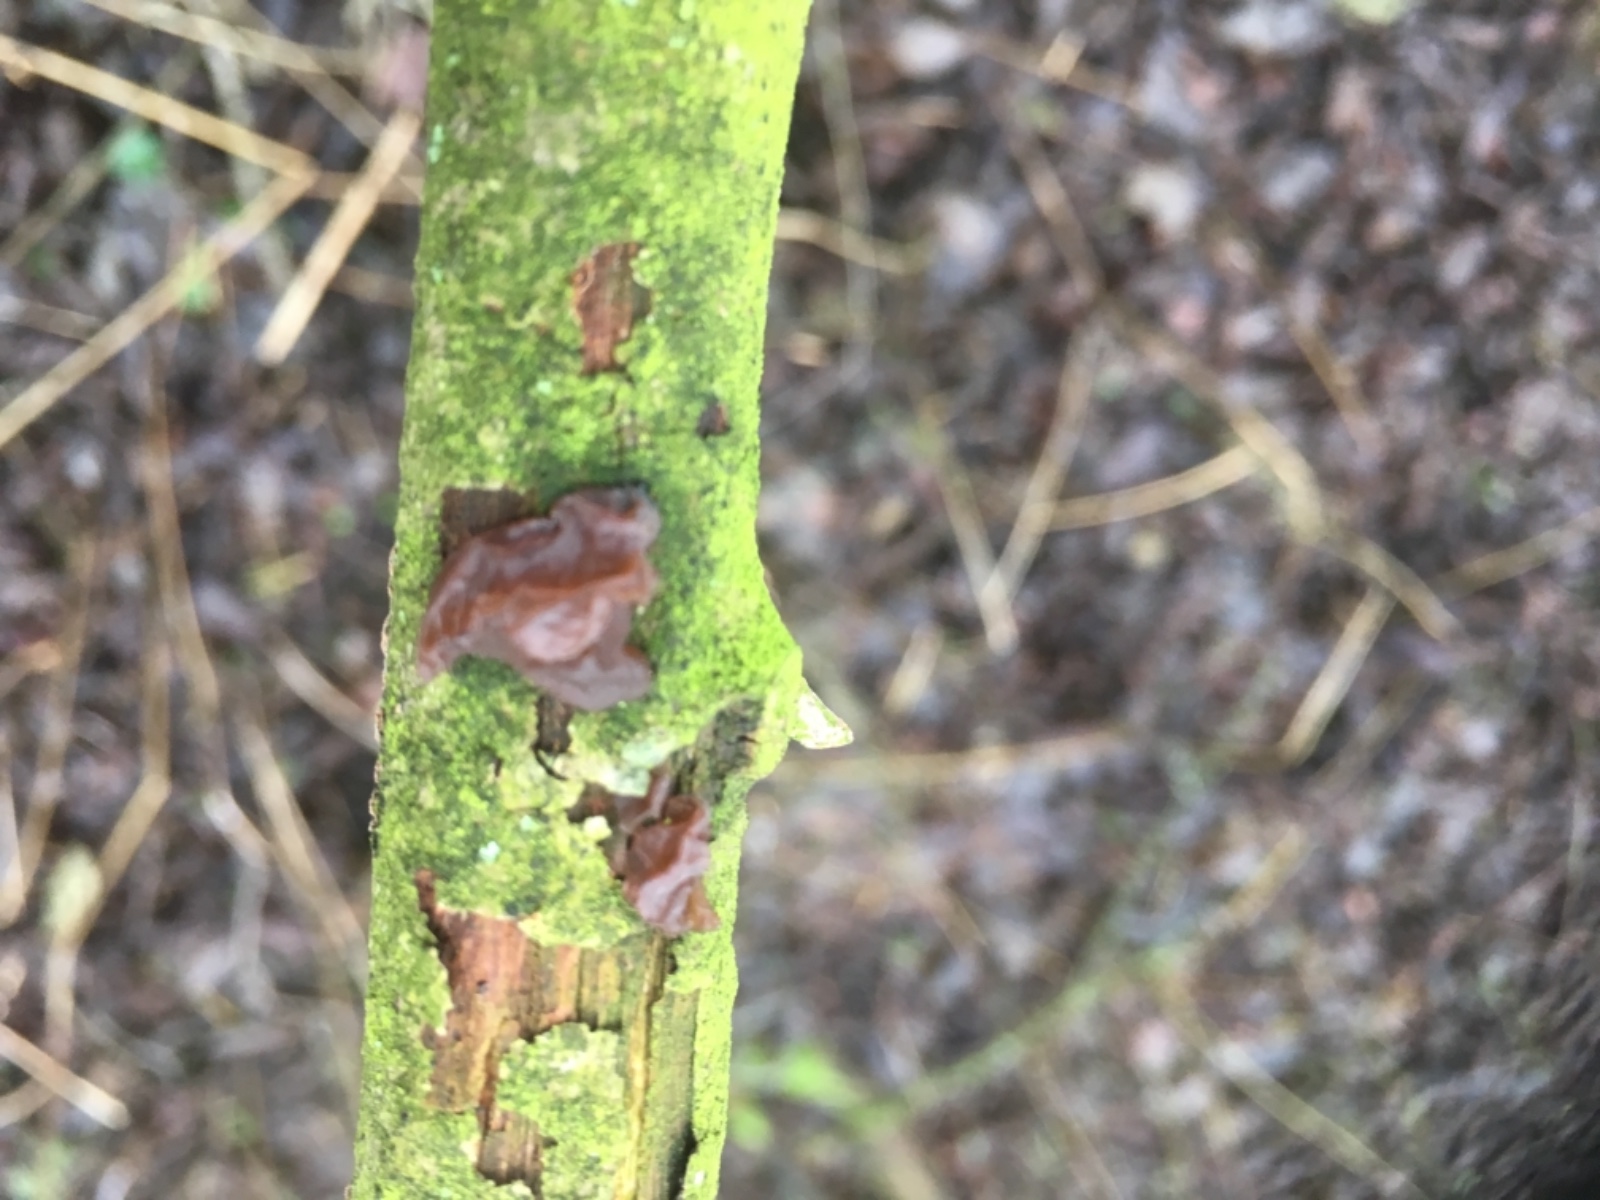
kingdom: Fungi
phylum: Basidiomycota
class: Agaricomycetes
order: Auriculariales
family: Auriculariaceae
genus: Exidia
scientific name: Exidia recisa
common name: pile-bævretop
